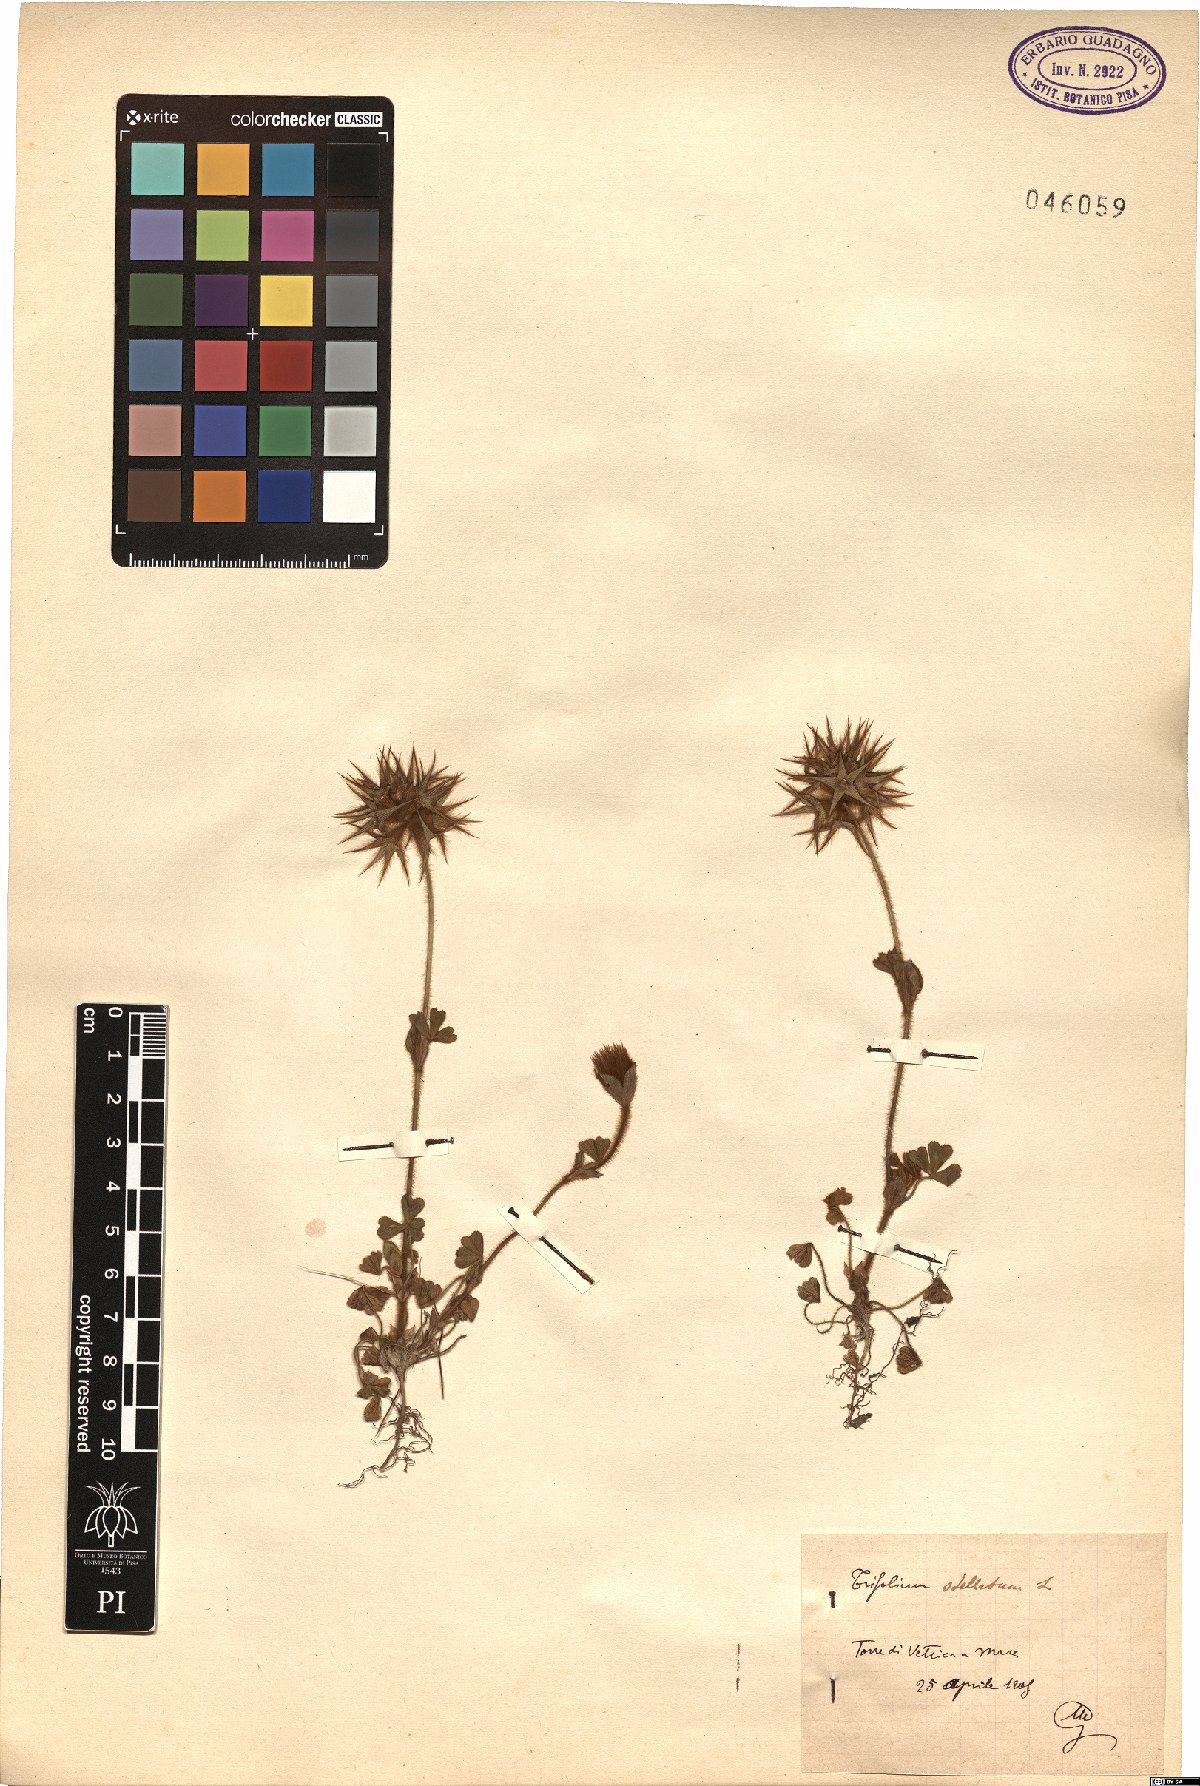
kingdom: Plantae
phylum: Tracheophyta
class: Magnoliopsida
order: Fabales
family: Fabaceae
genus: Trifolium
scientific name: Trifolium stellatum
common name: Starry clover
